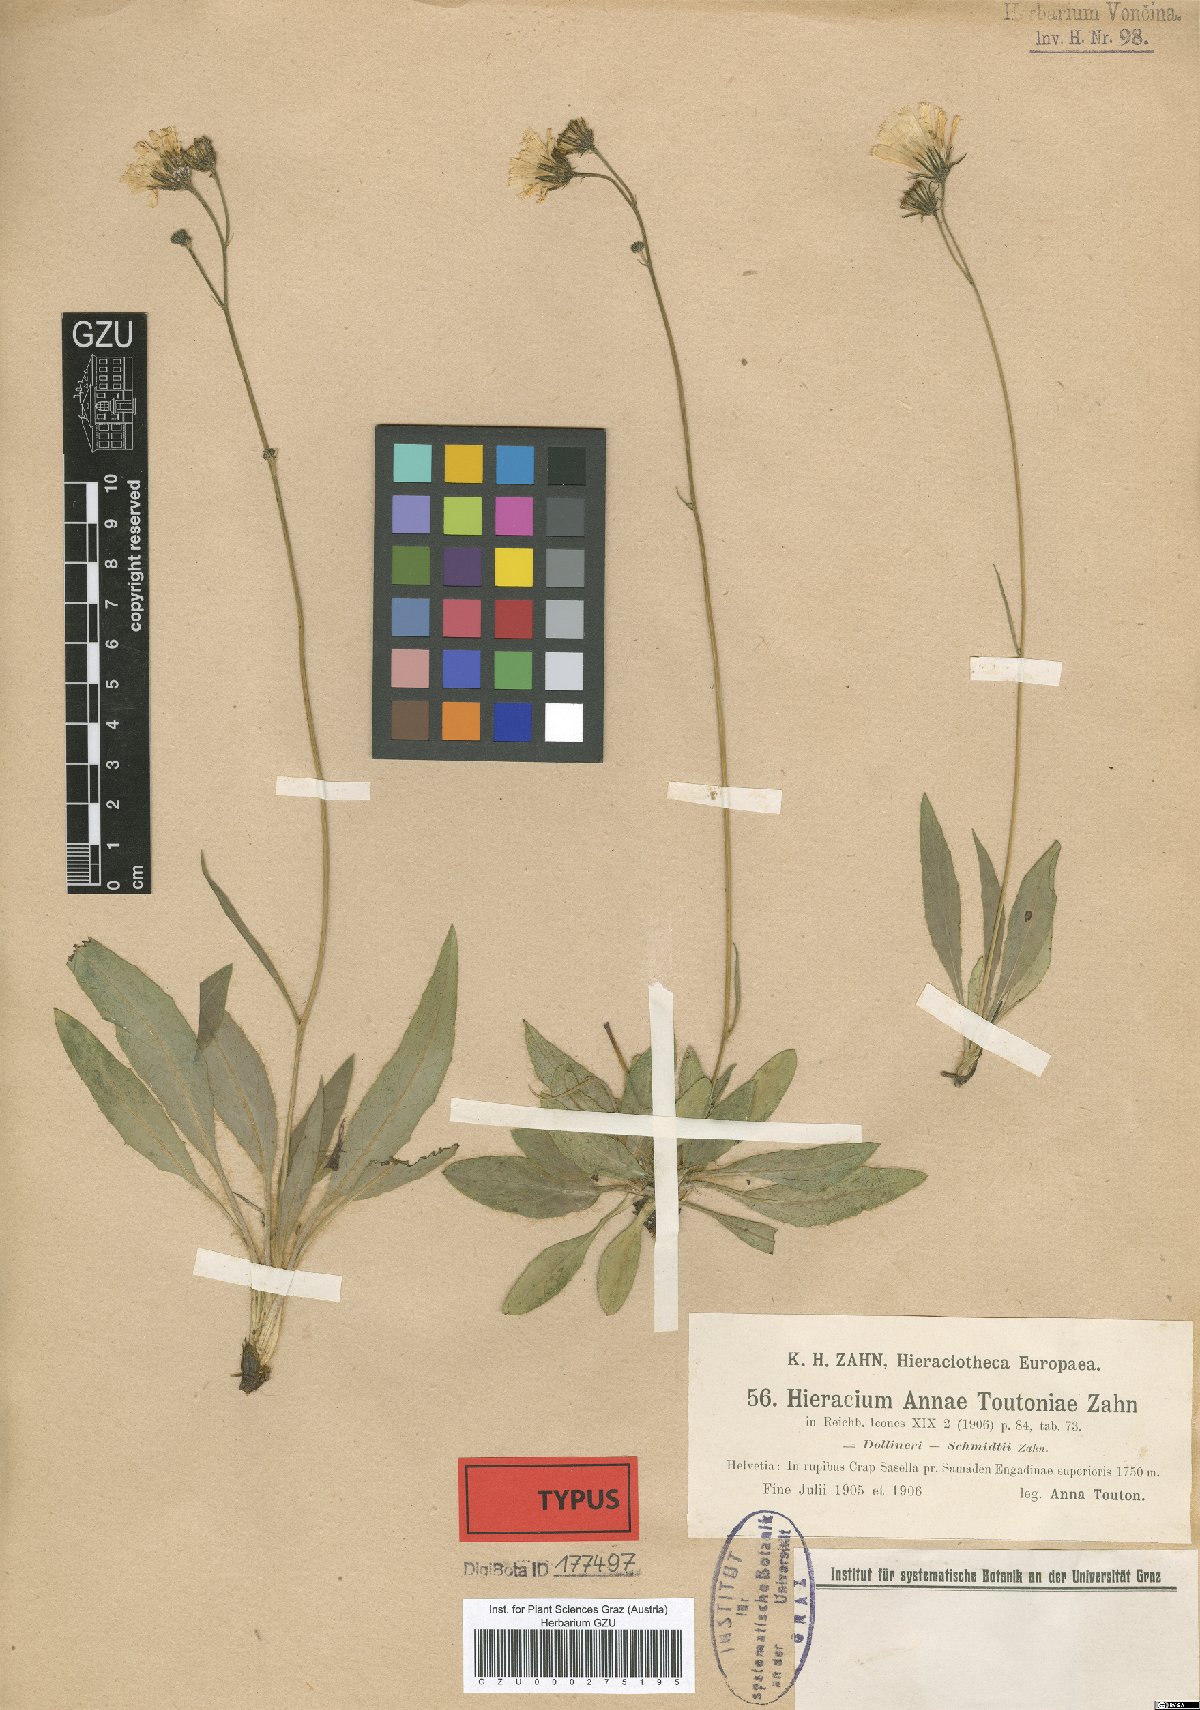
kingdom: Plantae
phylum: Tracheophyta
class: Magnoliopsida
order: Asterales
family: Asteraceae
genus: Hieracium
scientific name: Hieracium annae-toutoniae
